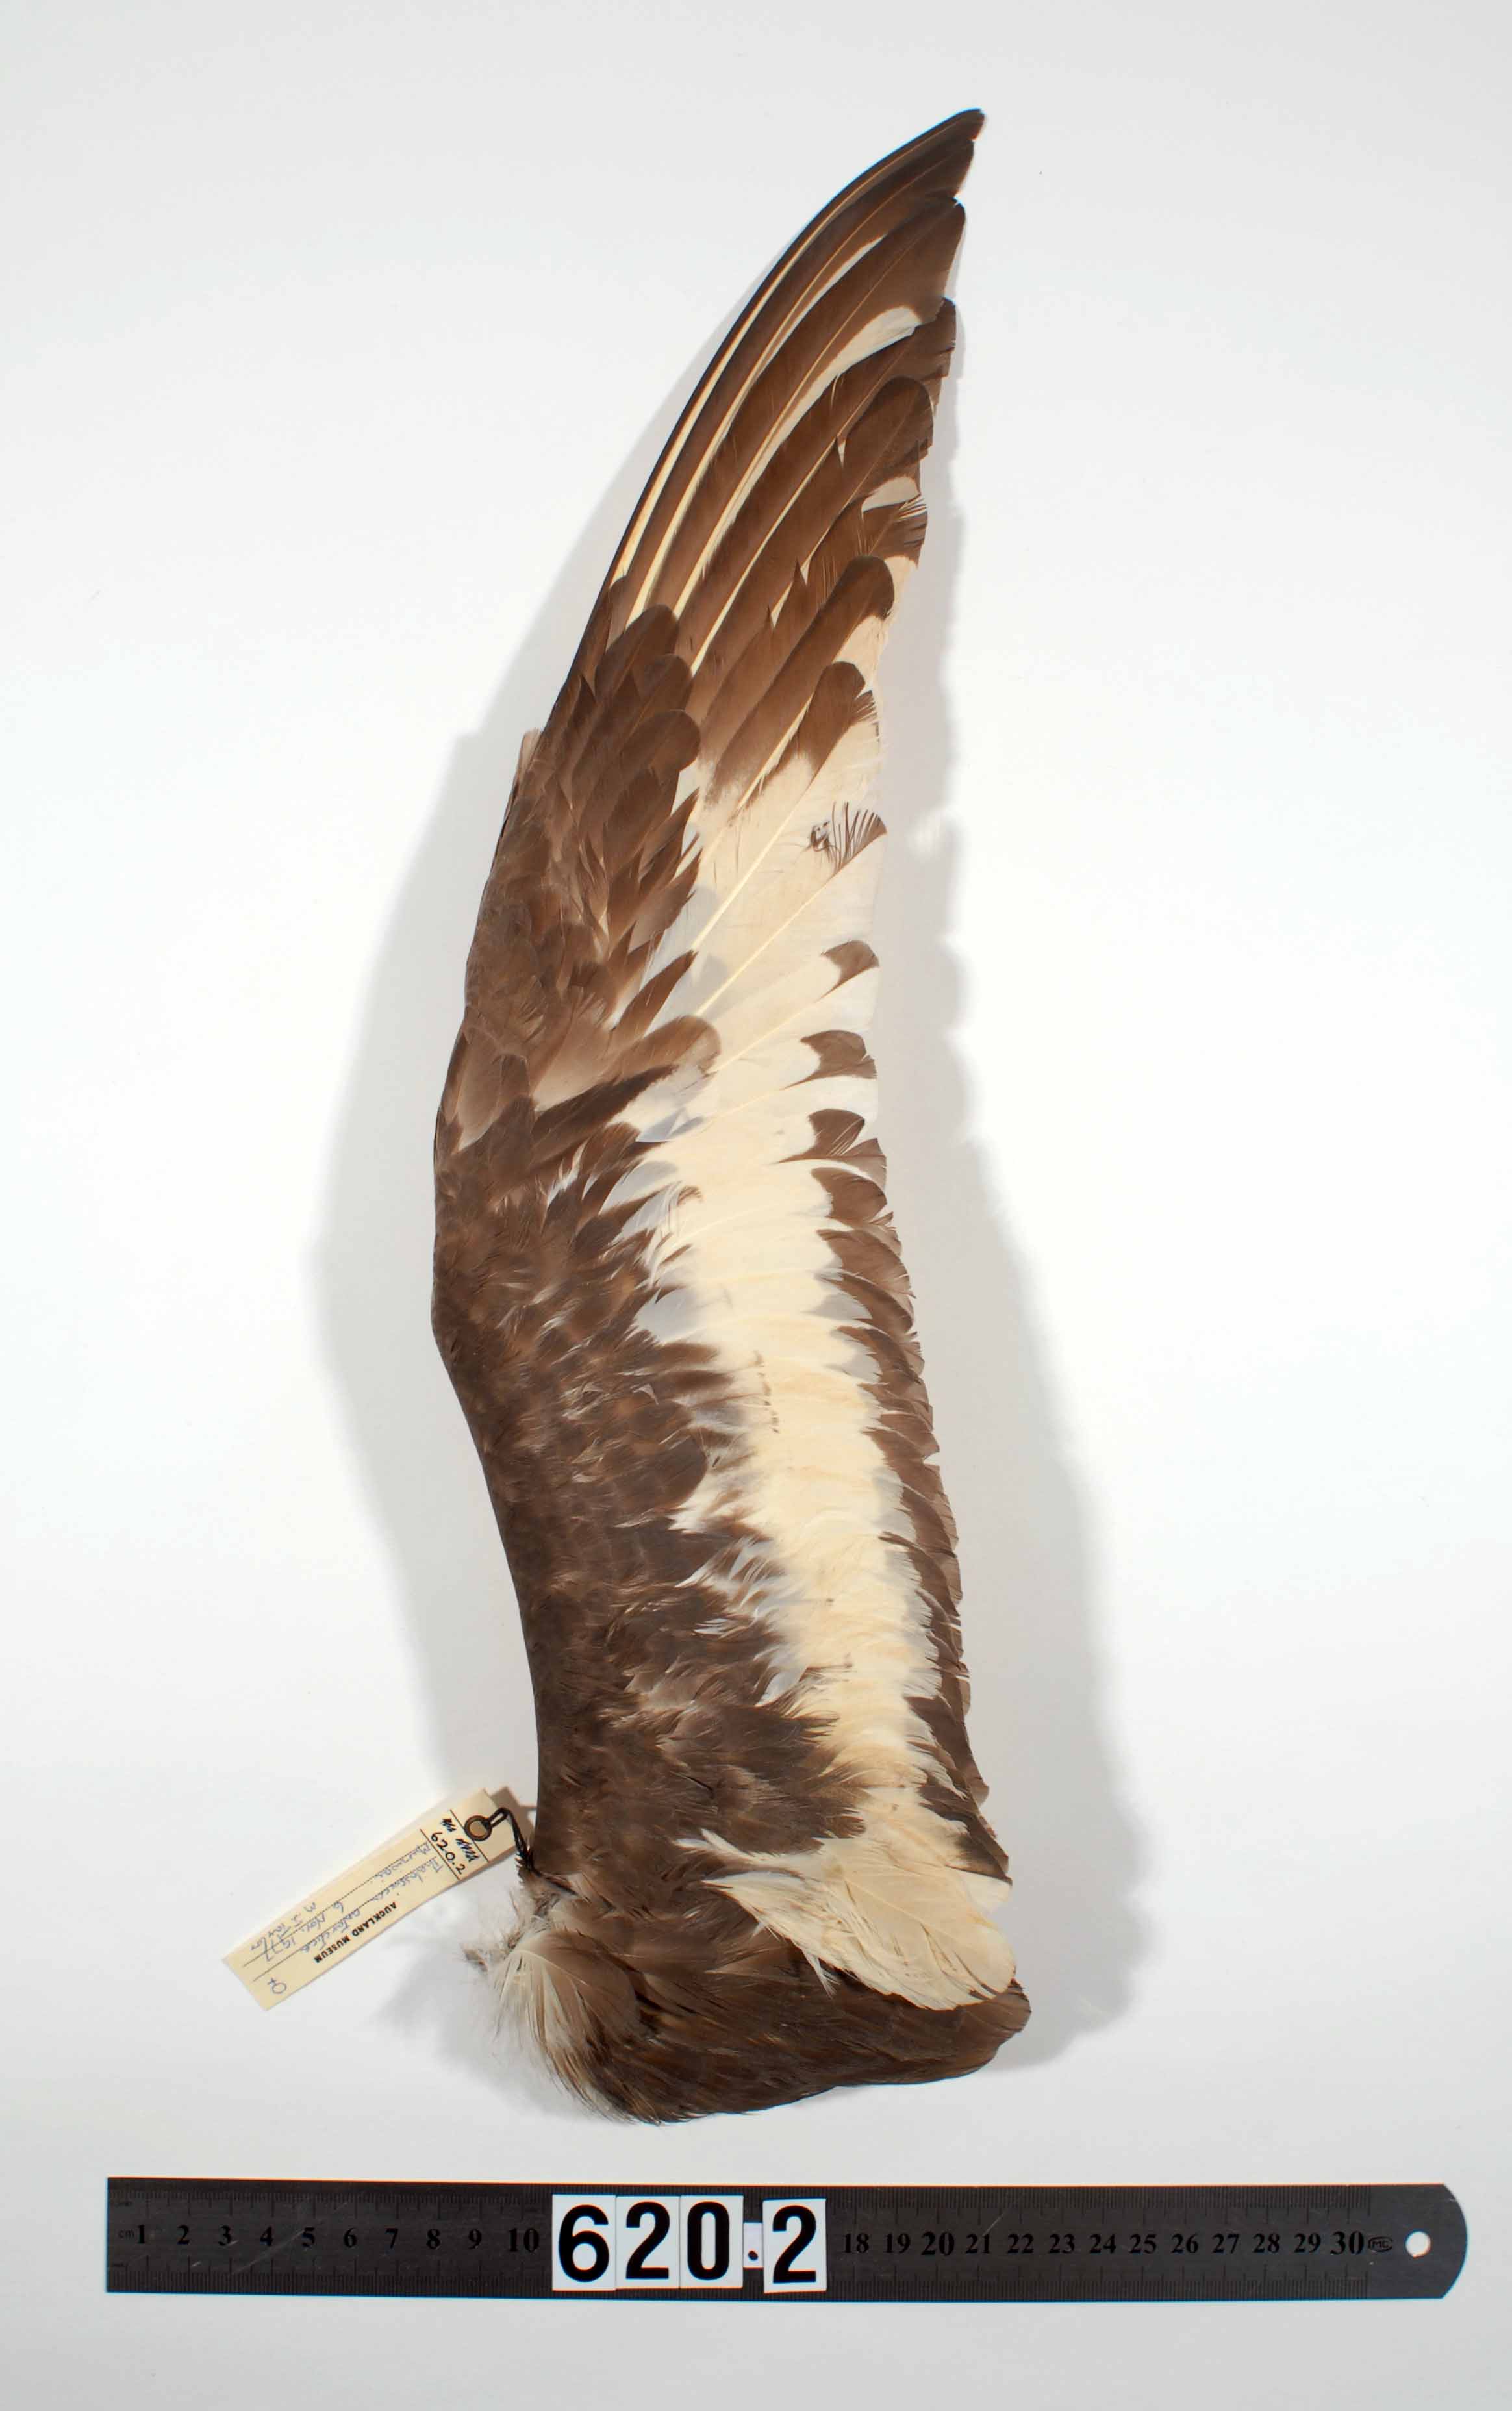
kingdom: Animalia
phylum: Chordata
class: Aves
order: Procellariiformes
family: Procellariidae
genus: Thalassoica
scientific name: Thalassoica antarctica
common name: Antarctic petrel
